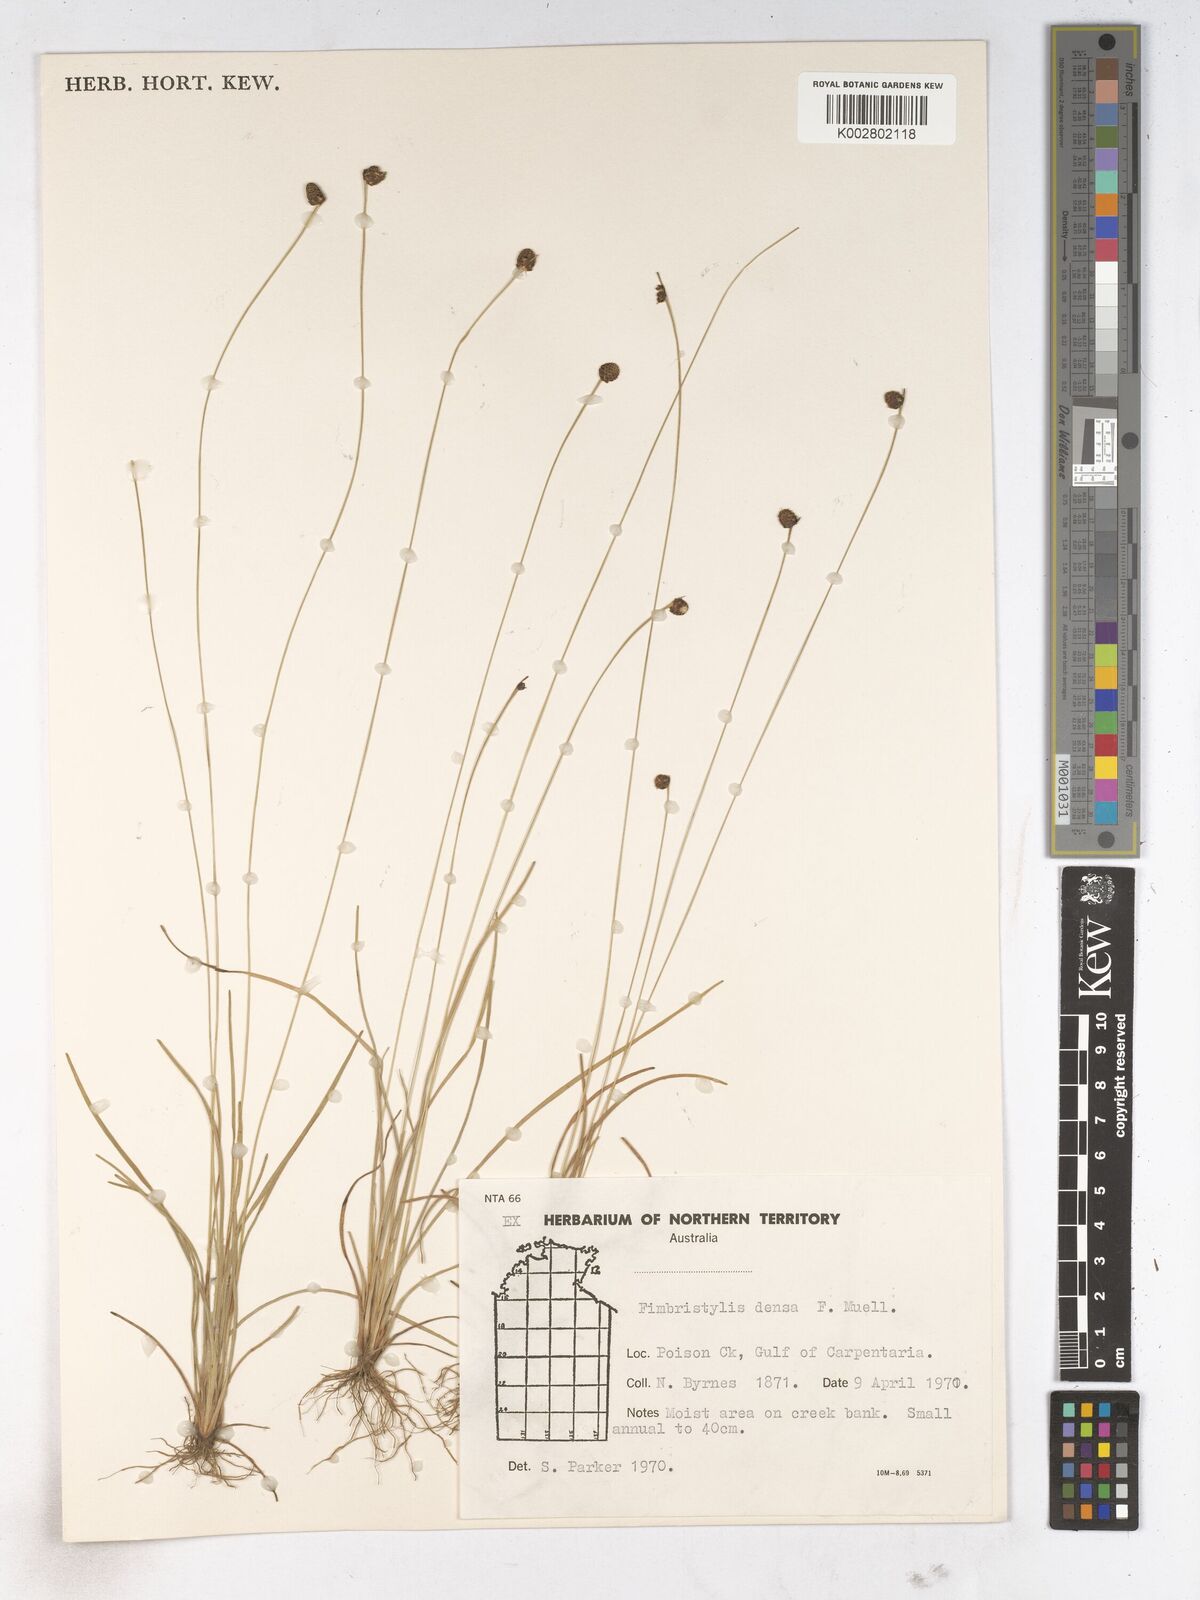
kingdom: Plantae
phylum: Tracheophyta
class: Liliopsida
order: Poales
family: Cyperaceae
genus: Fimbristylis
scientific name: Fimbristylis densa
